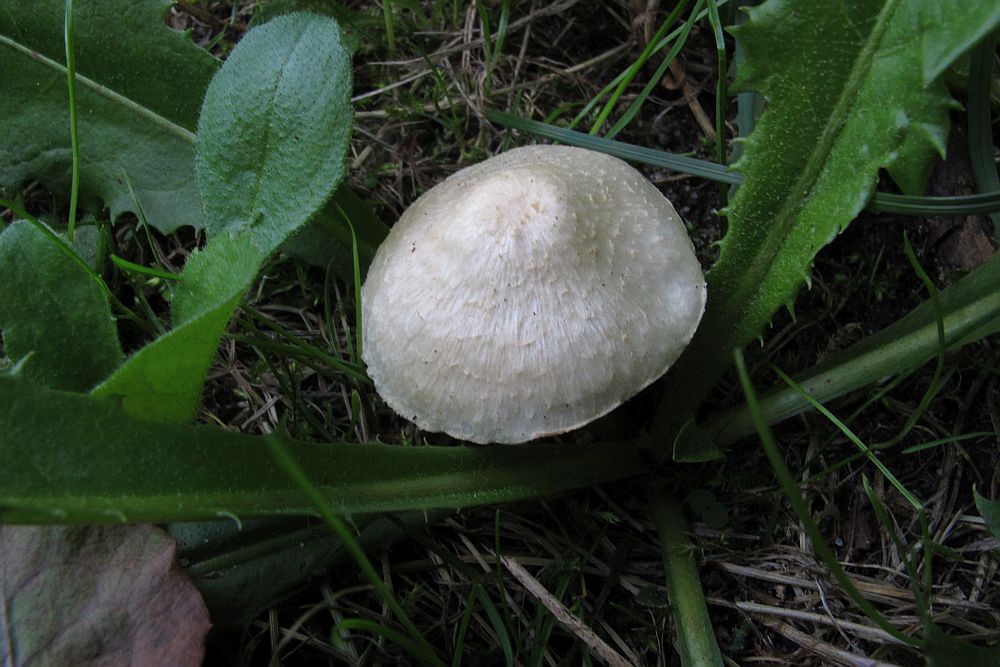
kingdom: Fungi
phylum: Basidiomycota
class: Agaricomycetes
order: Agaricales
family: Agaricaceae
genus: Lepiota
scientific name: Lepiota erminea
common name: hvid parasolhat
